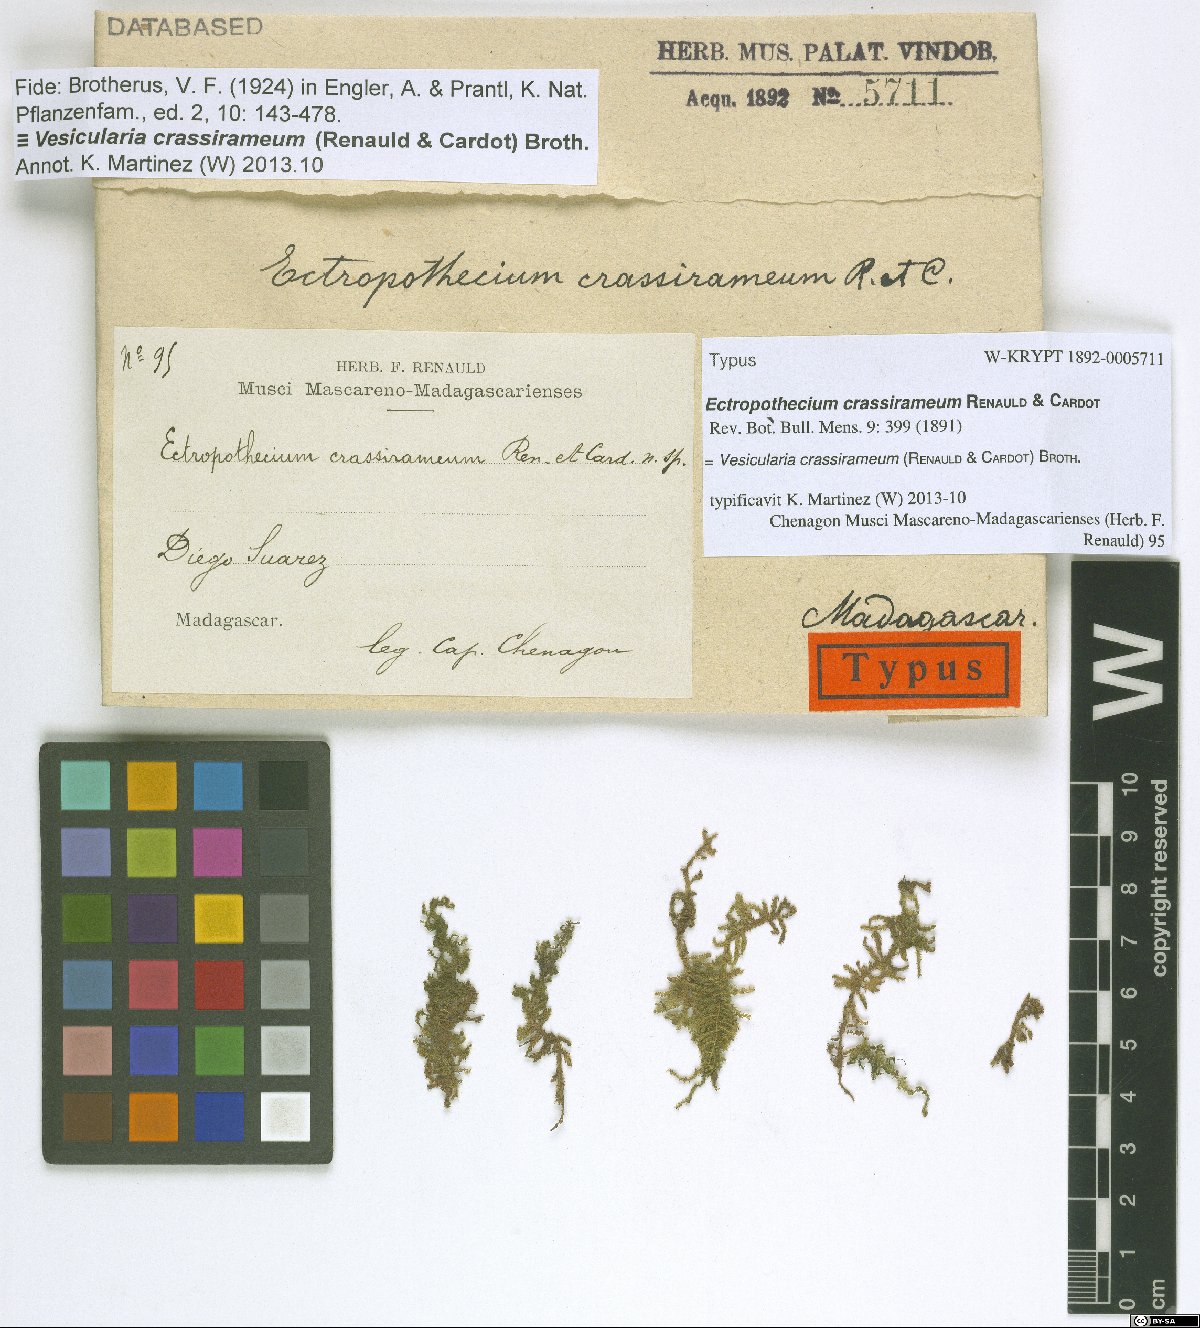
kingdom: Plantae
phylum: Bryophyta
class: Bryopsida
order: Hypnales
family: Hypnaceae
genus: Vesicularia
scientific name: Vesicularia crassiramea
